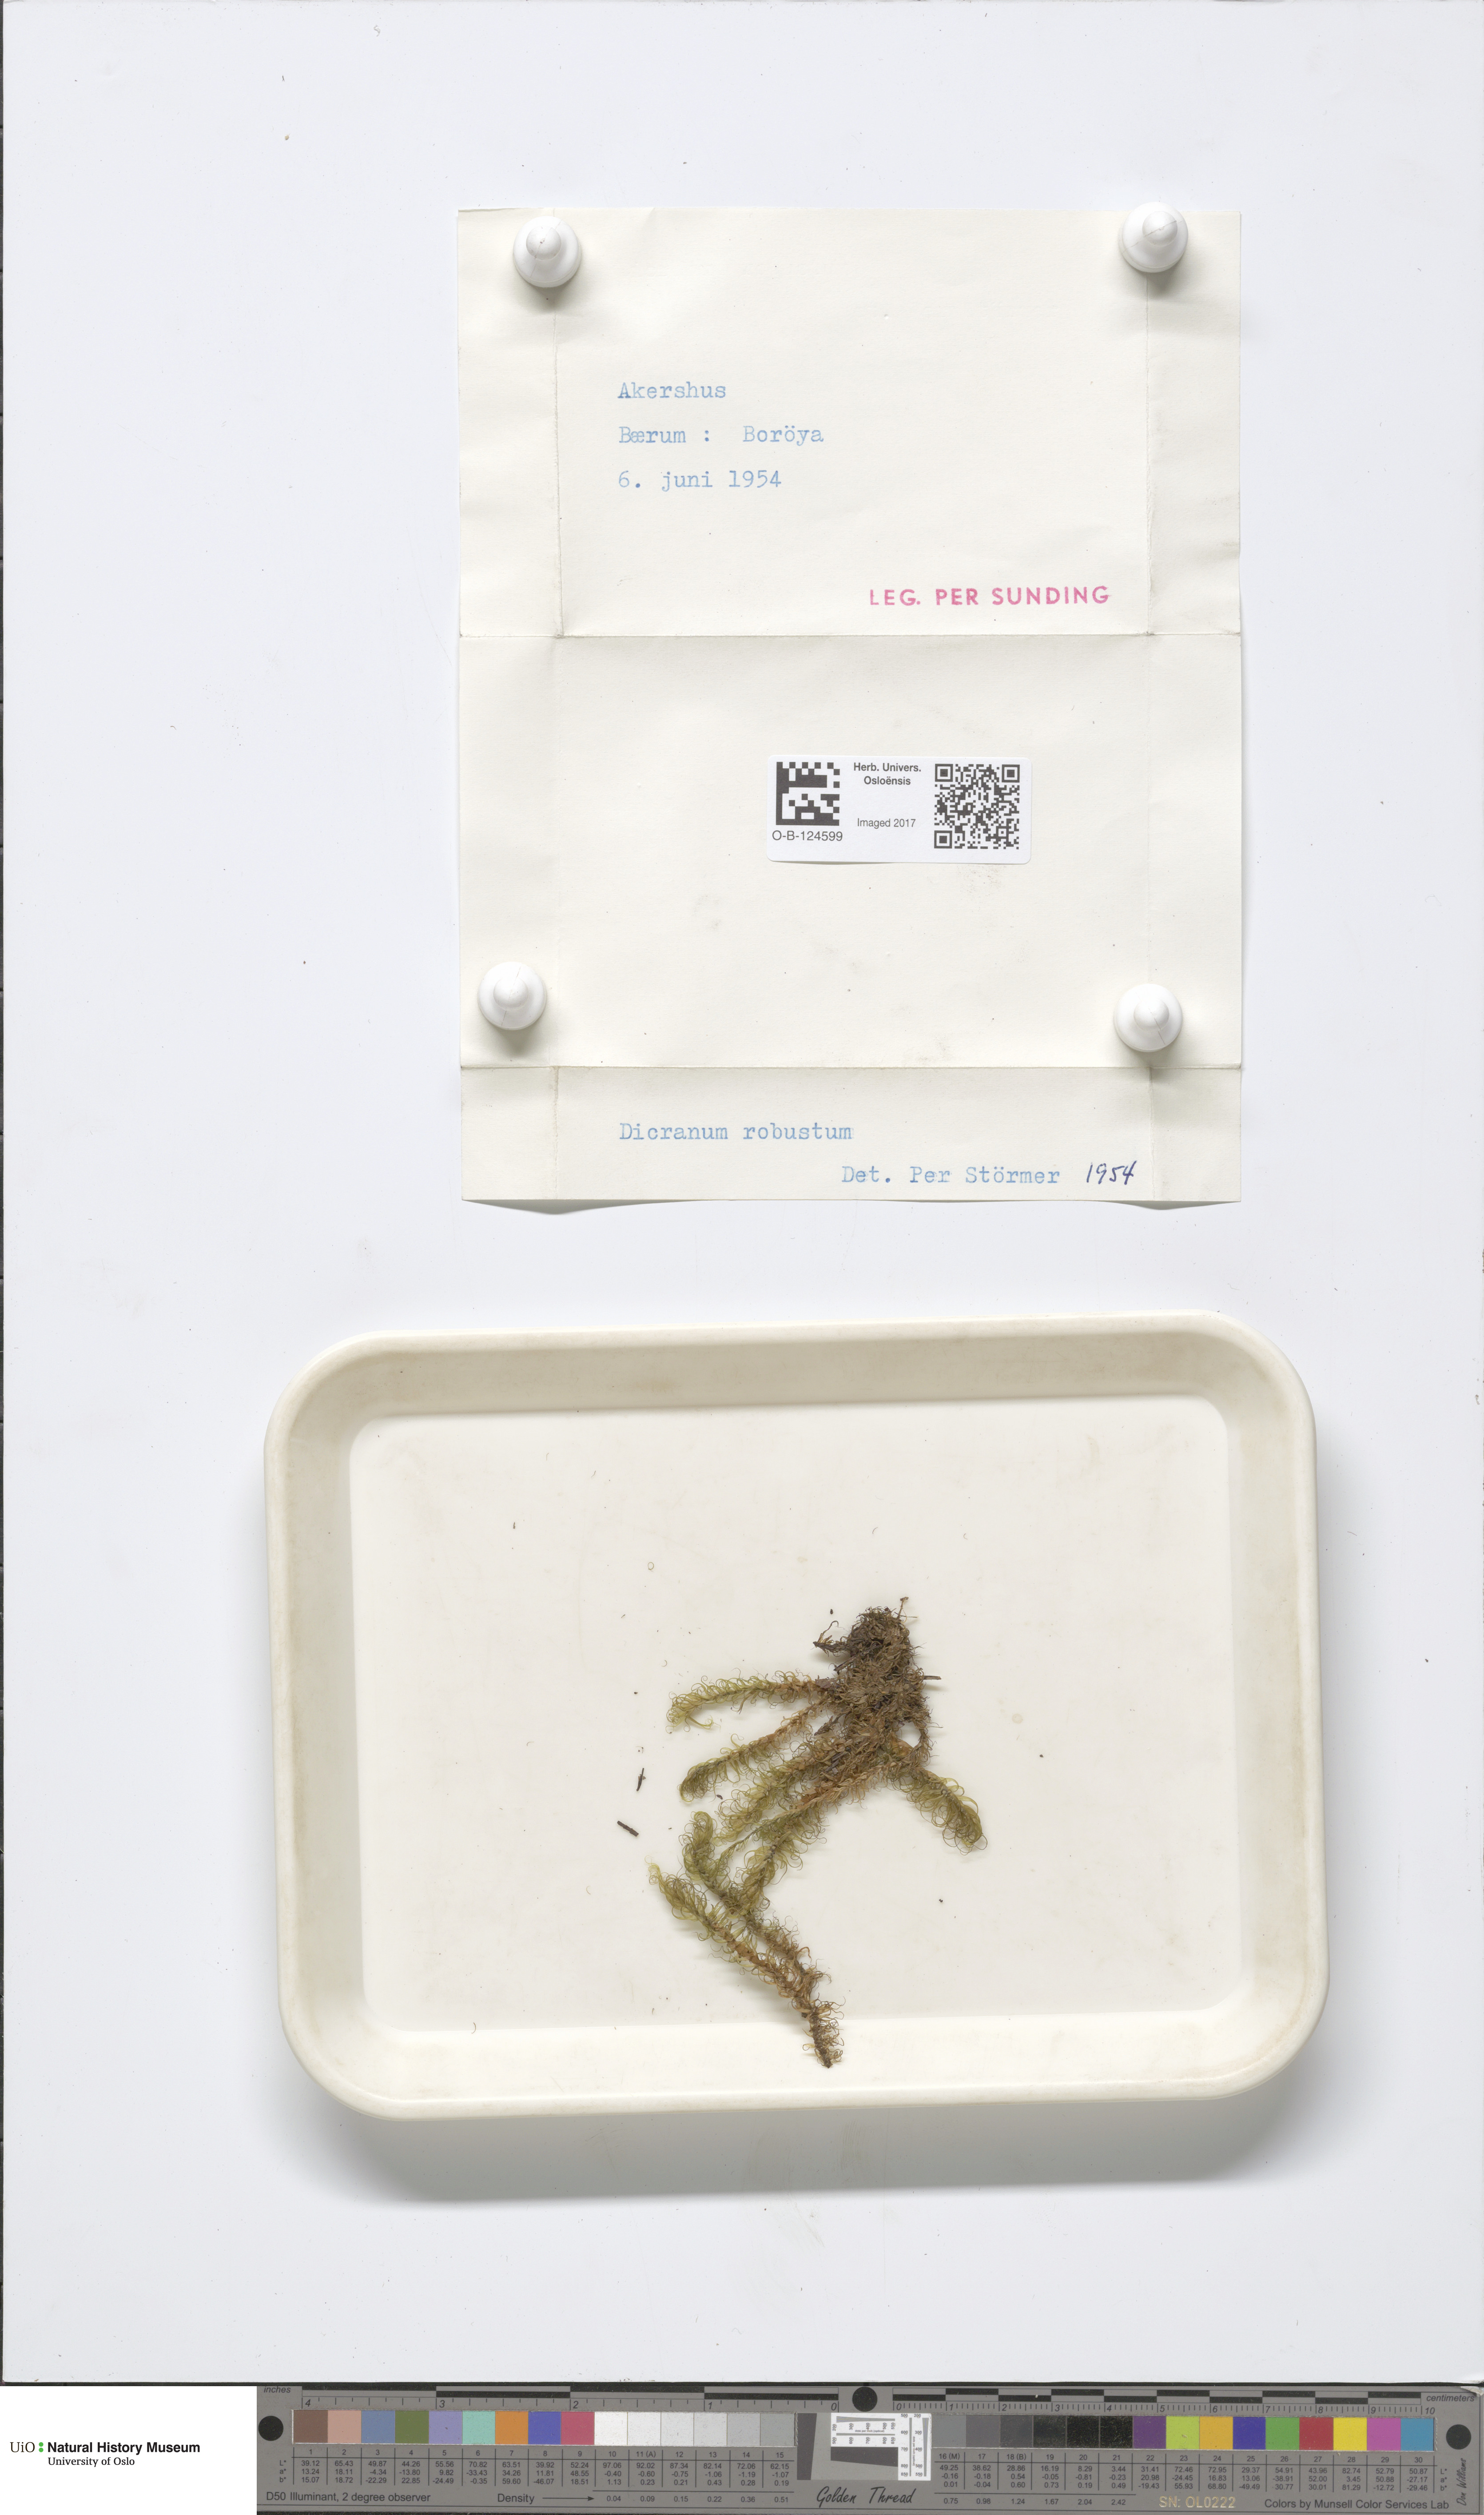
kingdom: Plantae
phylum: Bryophyta
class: Bryopsida
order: Dicranales
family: Dicranaceae
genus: Dicranum
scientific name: Dicranum drummondii
